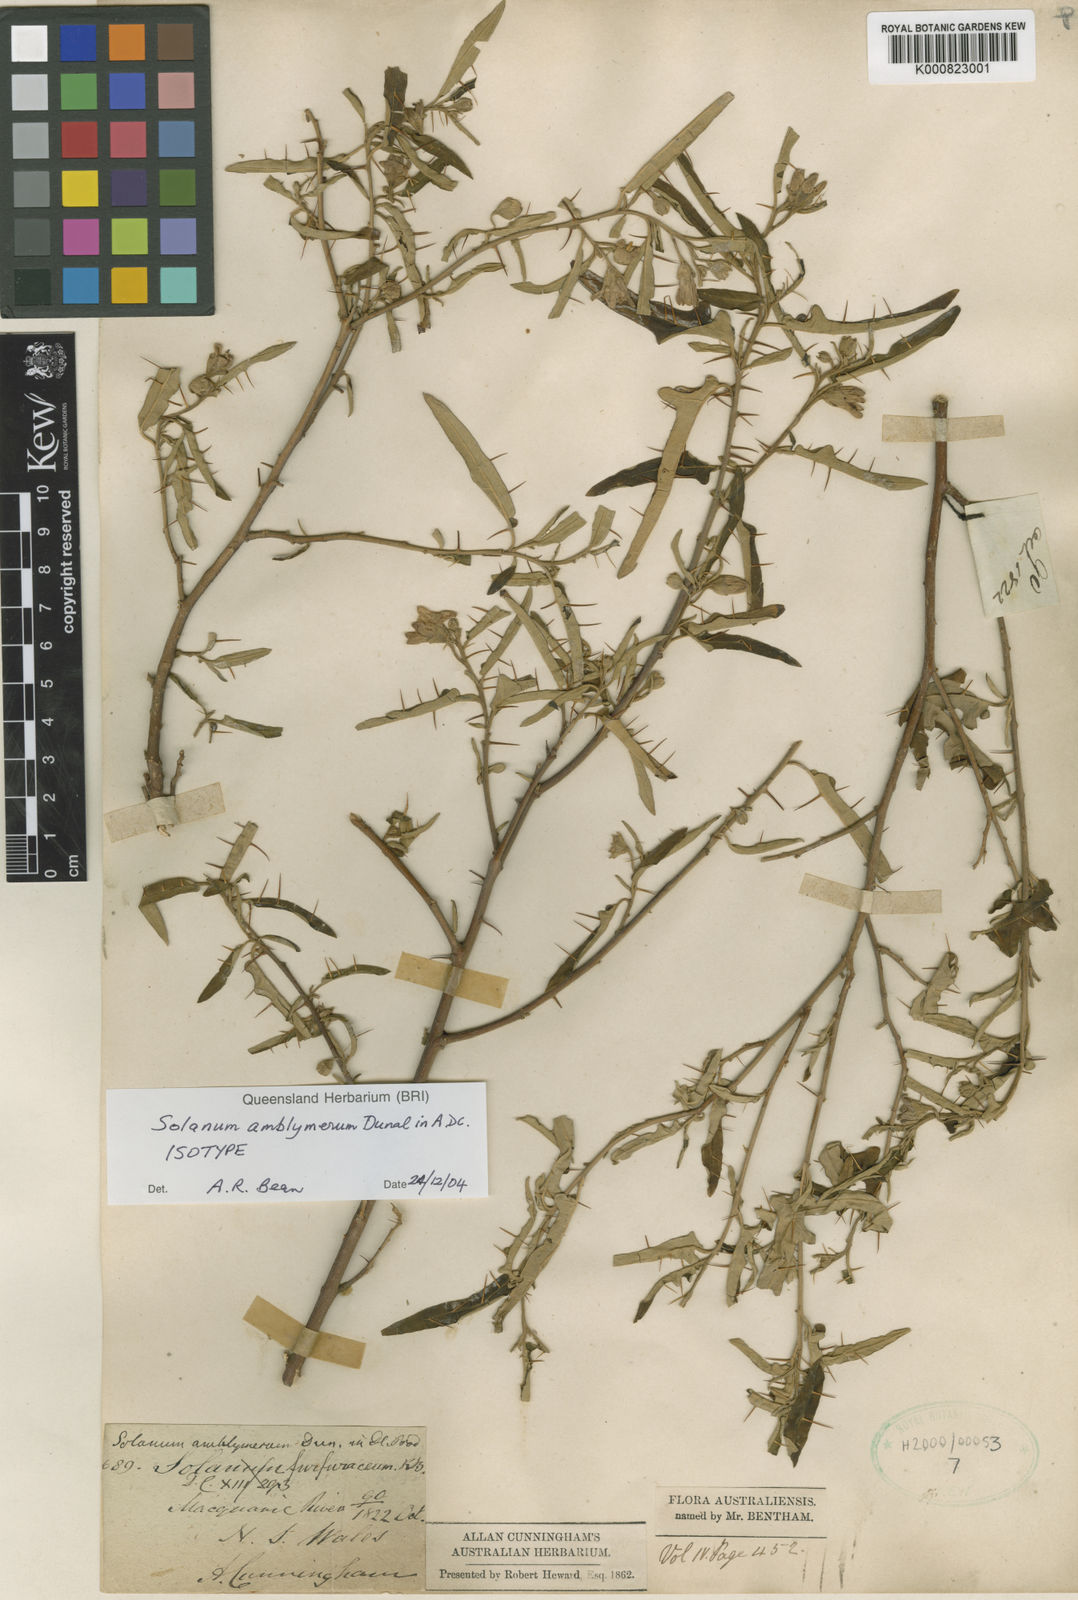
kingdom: Plantae
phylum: Tracheophyta
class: Magnoliopsida
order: Solanales
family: Solanaceae
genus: Solanum
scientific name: Solanum amblymerum
